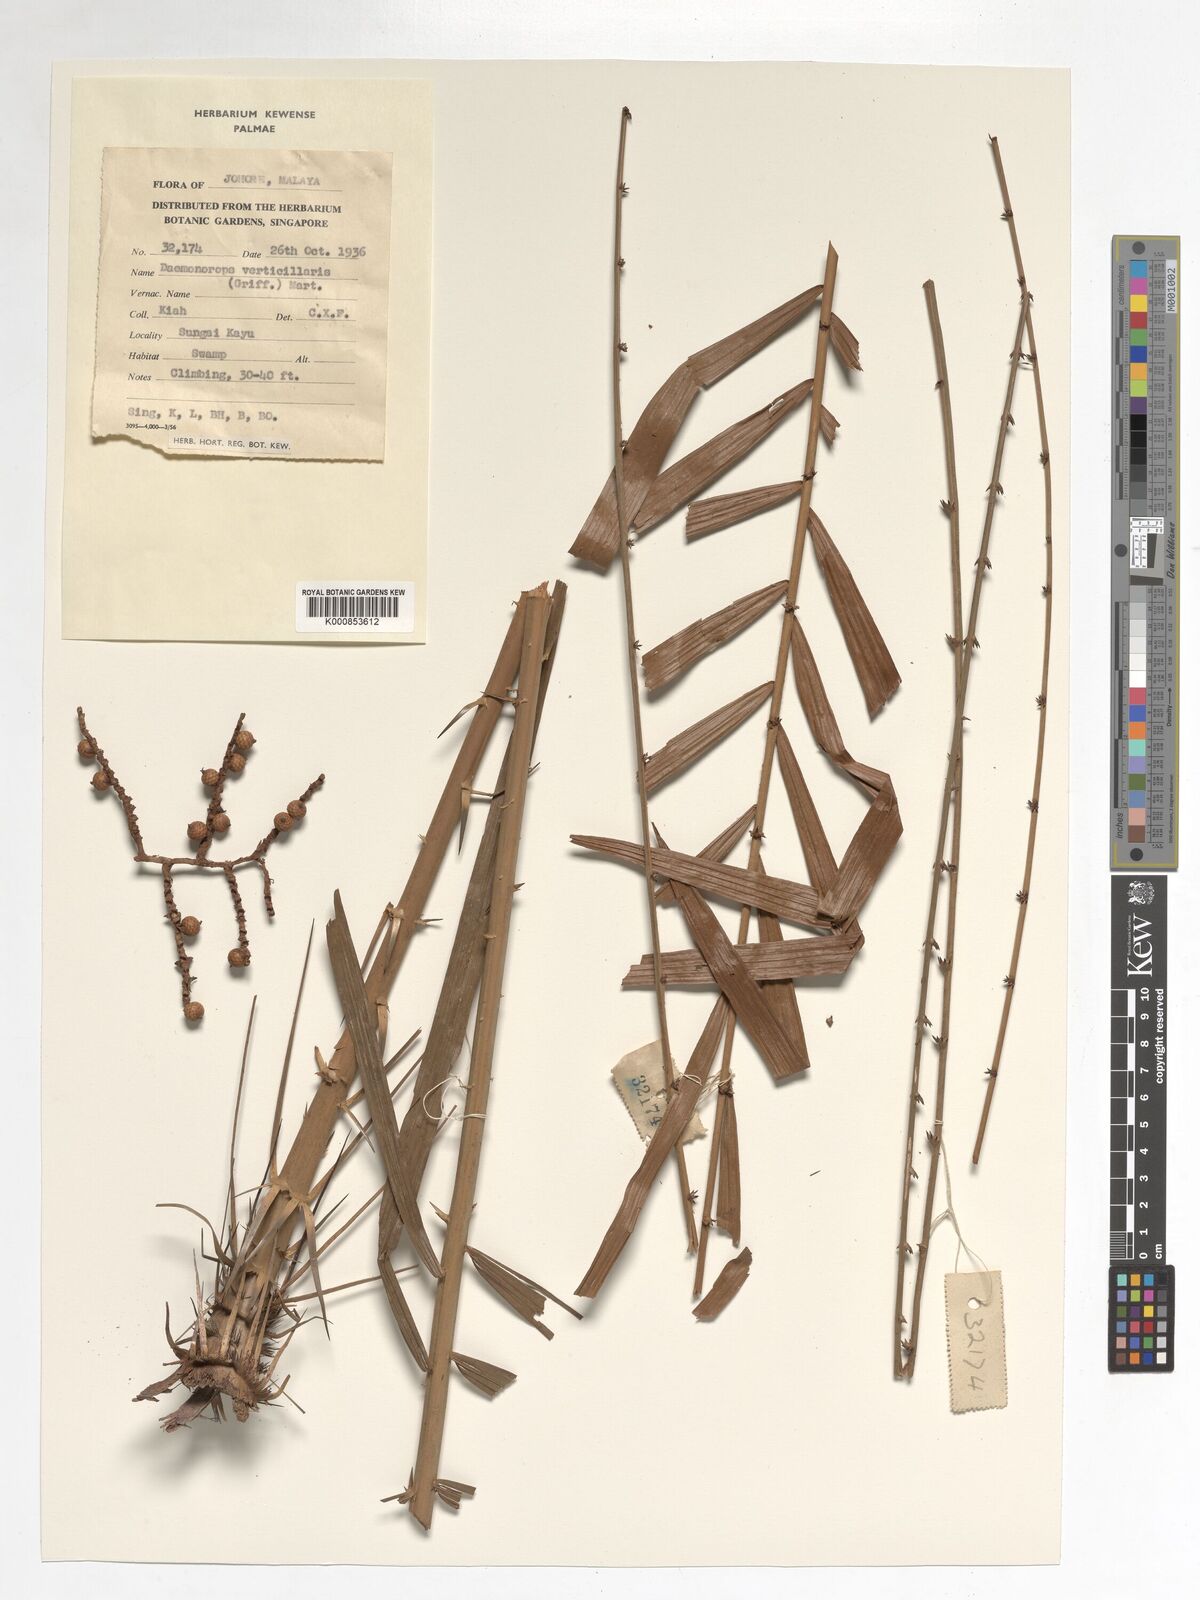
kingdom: Plantae
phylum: Tracheophyta
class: Liliopsida
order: Arecales
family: Arecaceae
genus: Calamus
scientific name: Calamus verticillaris
